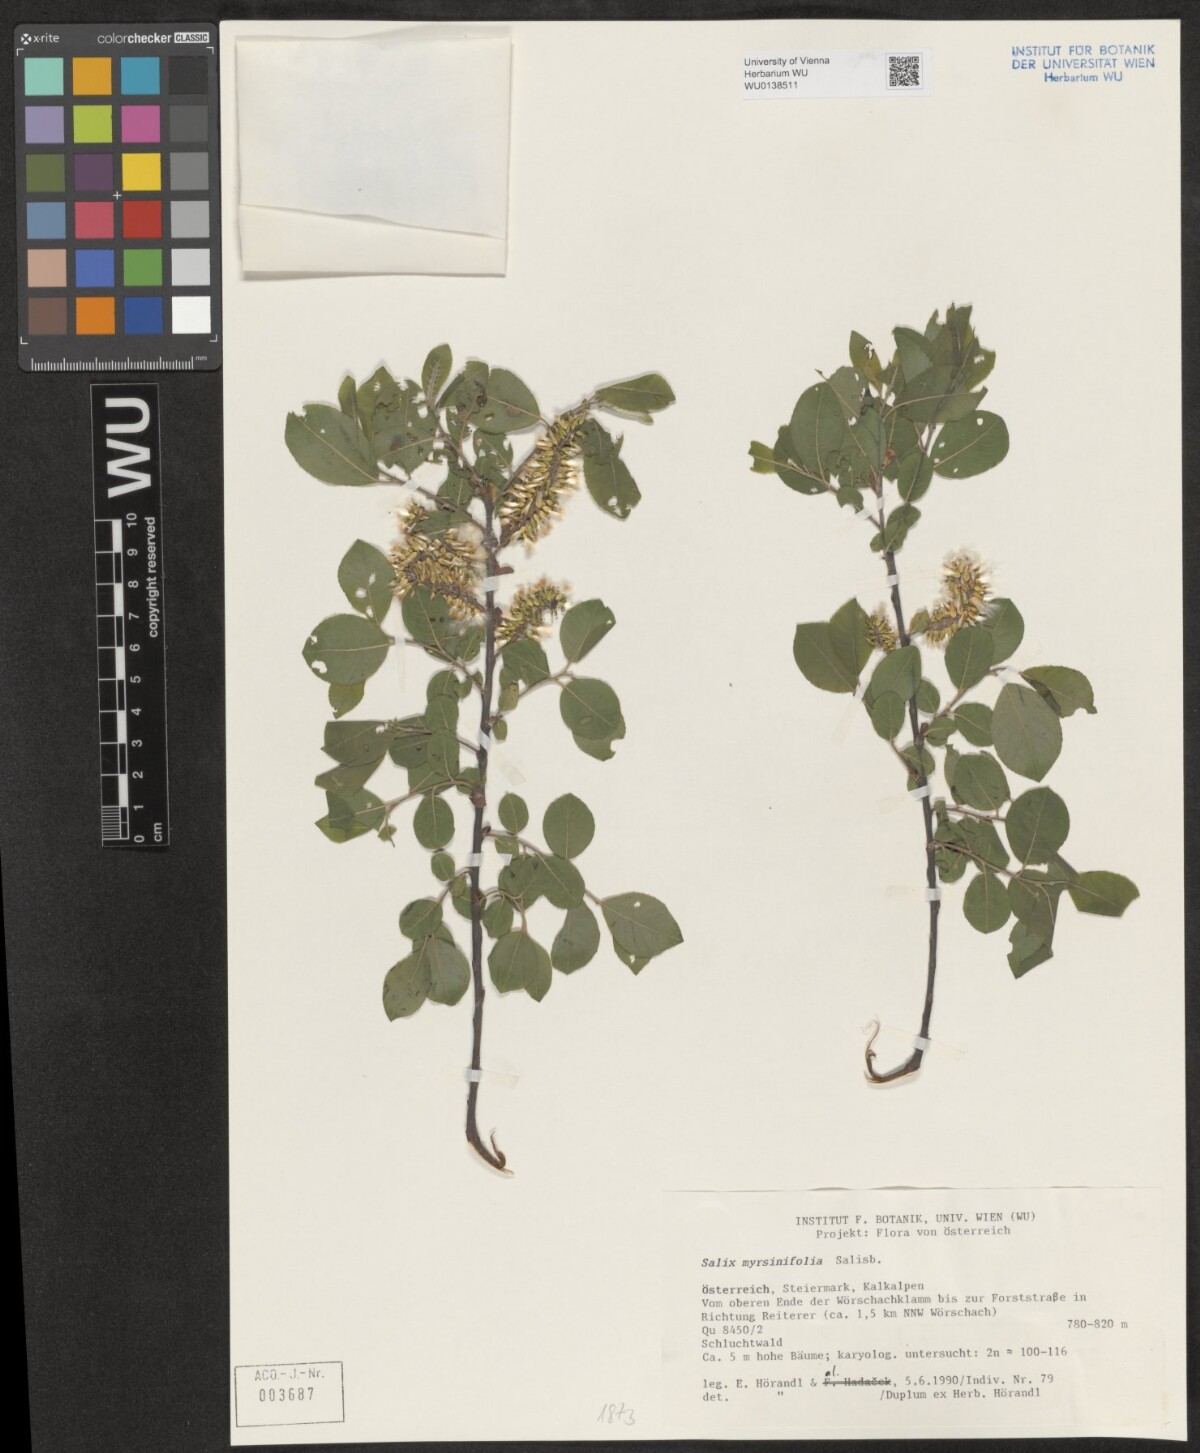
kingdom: Plantae
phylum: Tracheophyta
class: Magnoliopsida
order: Malpighiales
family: Salicaceae
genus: Salix
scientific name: Salix myrsinifolia
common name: Dark-leaved willow
